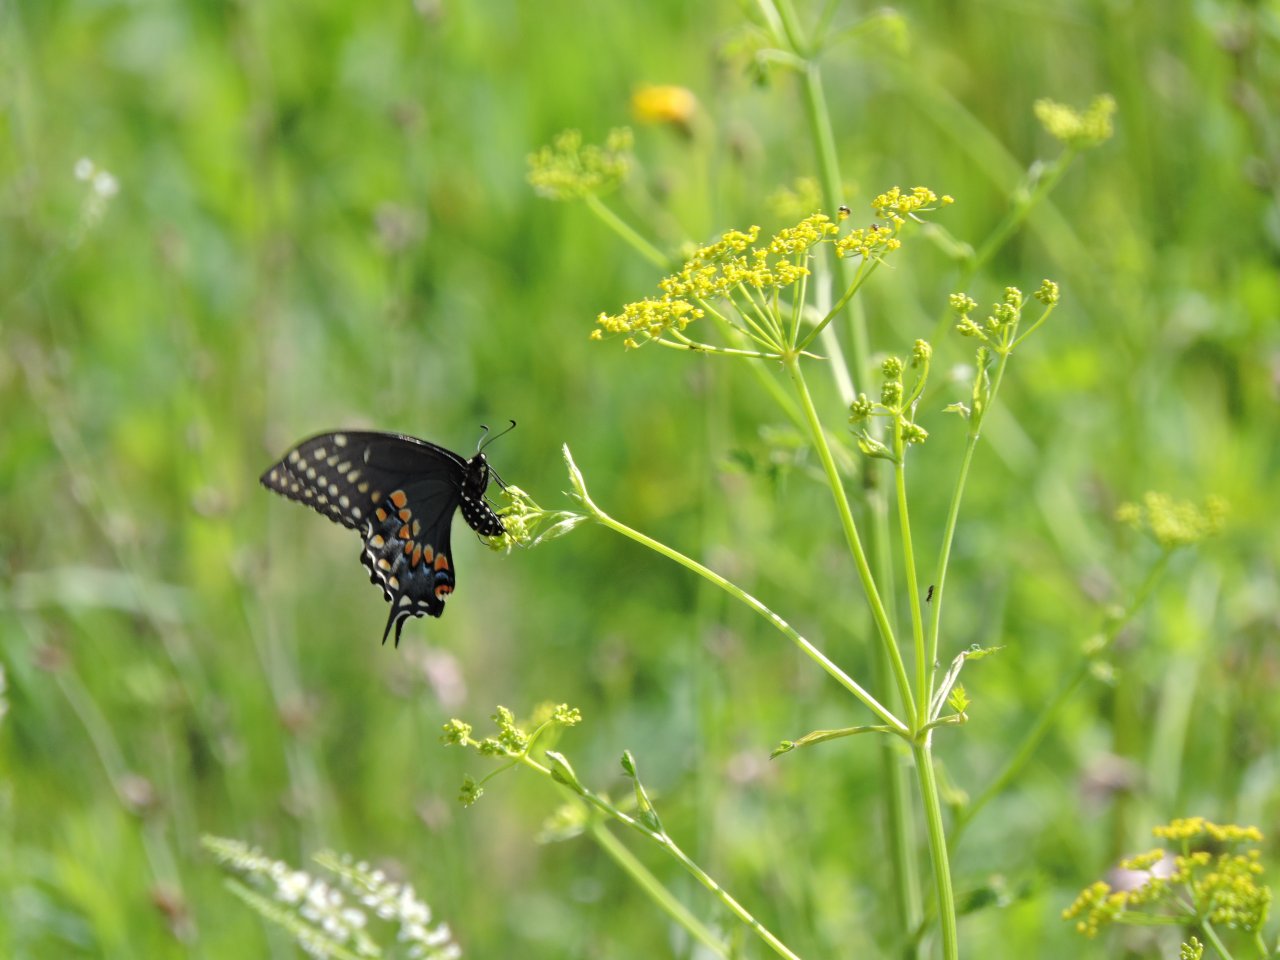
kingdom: Animalia
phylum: Arthropoda
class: Insecta
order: Lepidoptera
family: Papilionidae
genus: Papilio
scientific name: Papilio polyxenes
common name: Black Swallowtail
